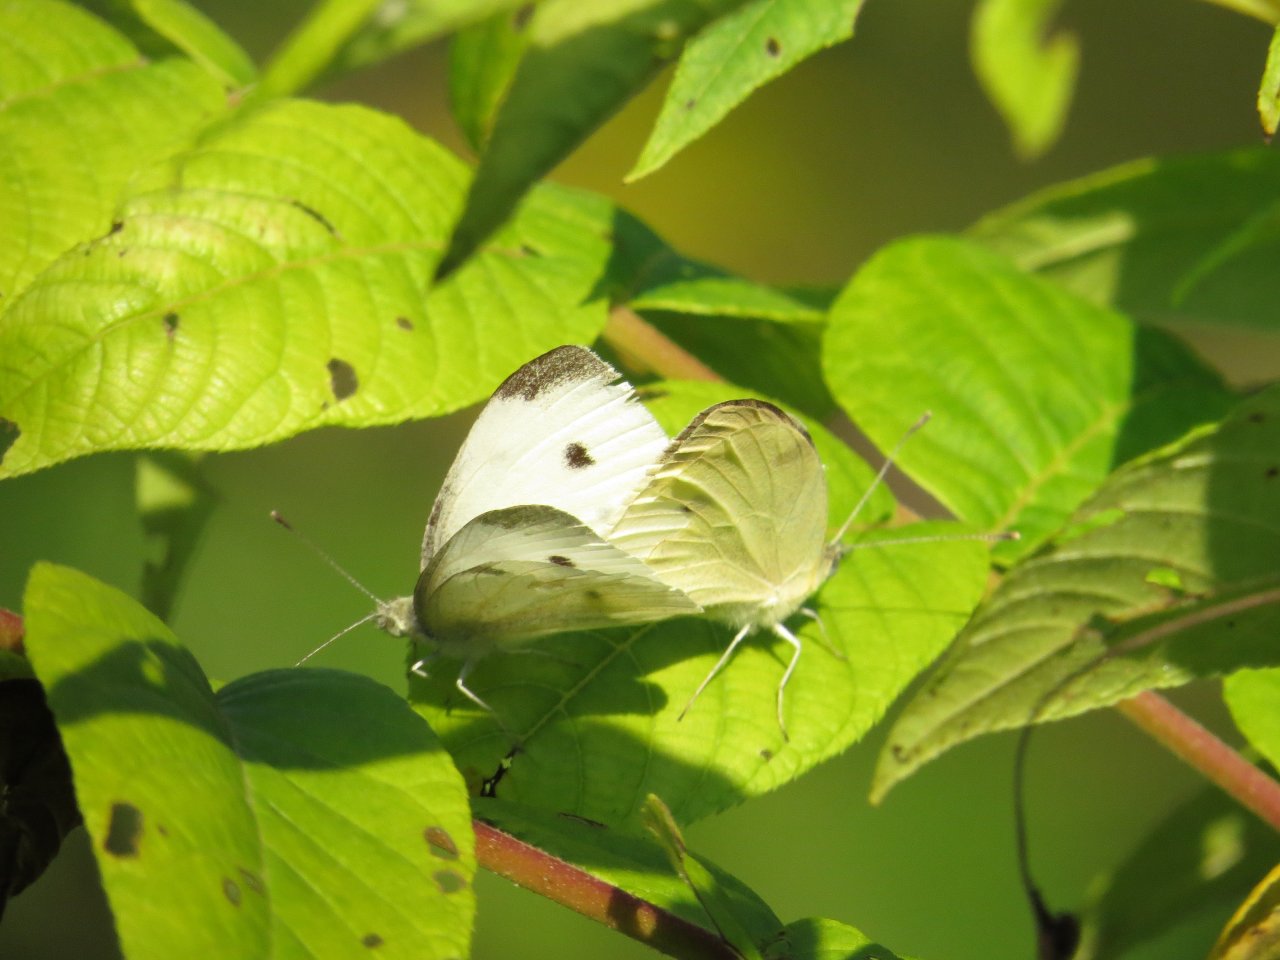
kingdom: Animalia
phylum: Arthropoda
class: Insecta
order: Lepidoptera
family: Pieridae
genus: Pieris
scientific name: Pieris rapae
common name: Cabbage White
